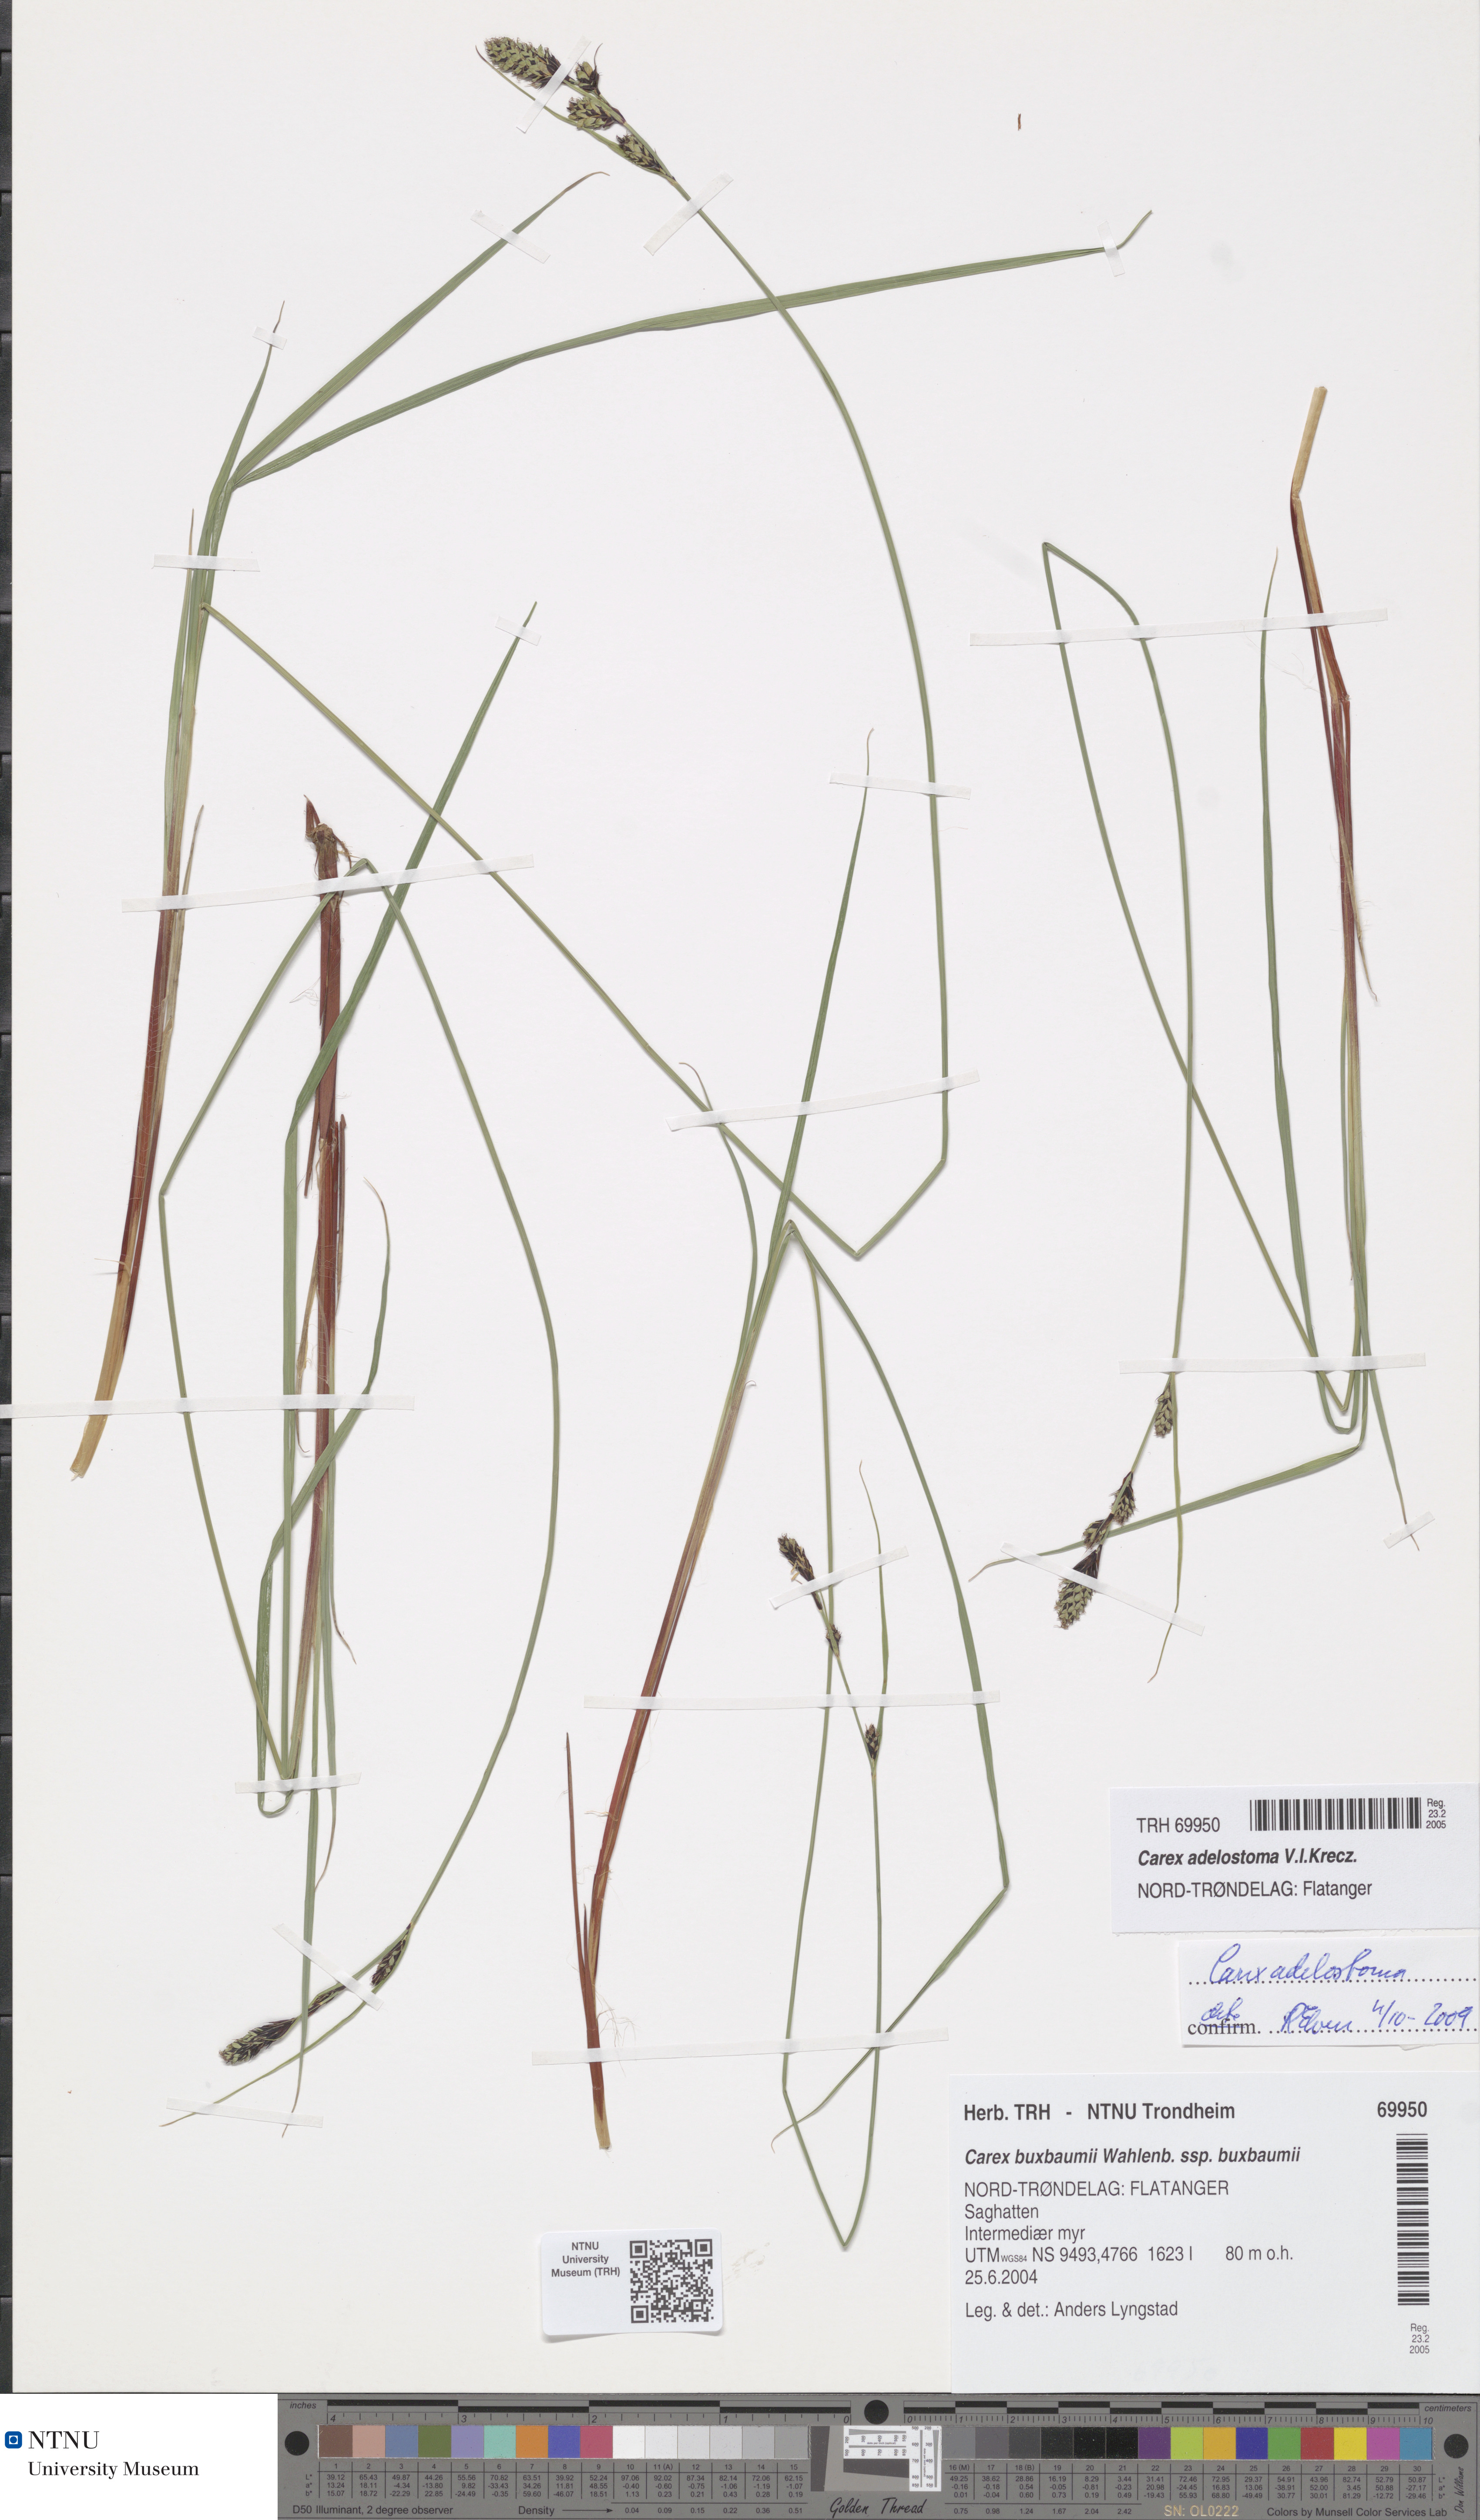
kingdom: Plantae
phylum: Tracheophyta
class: Liliopsida
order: Poales
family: Cyperaceae
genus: Carex
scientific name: Carex adelostoma
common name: Circumpolar sedge
